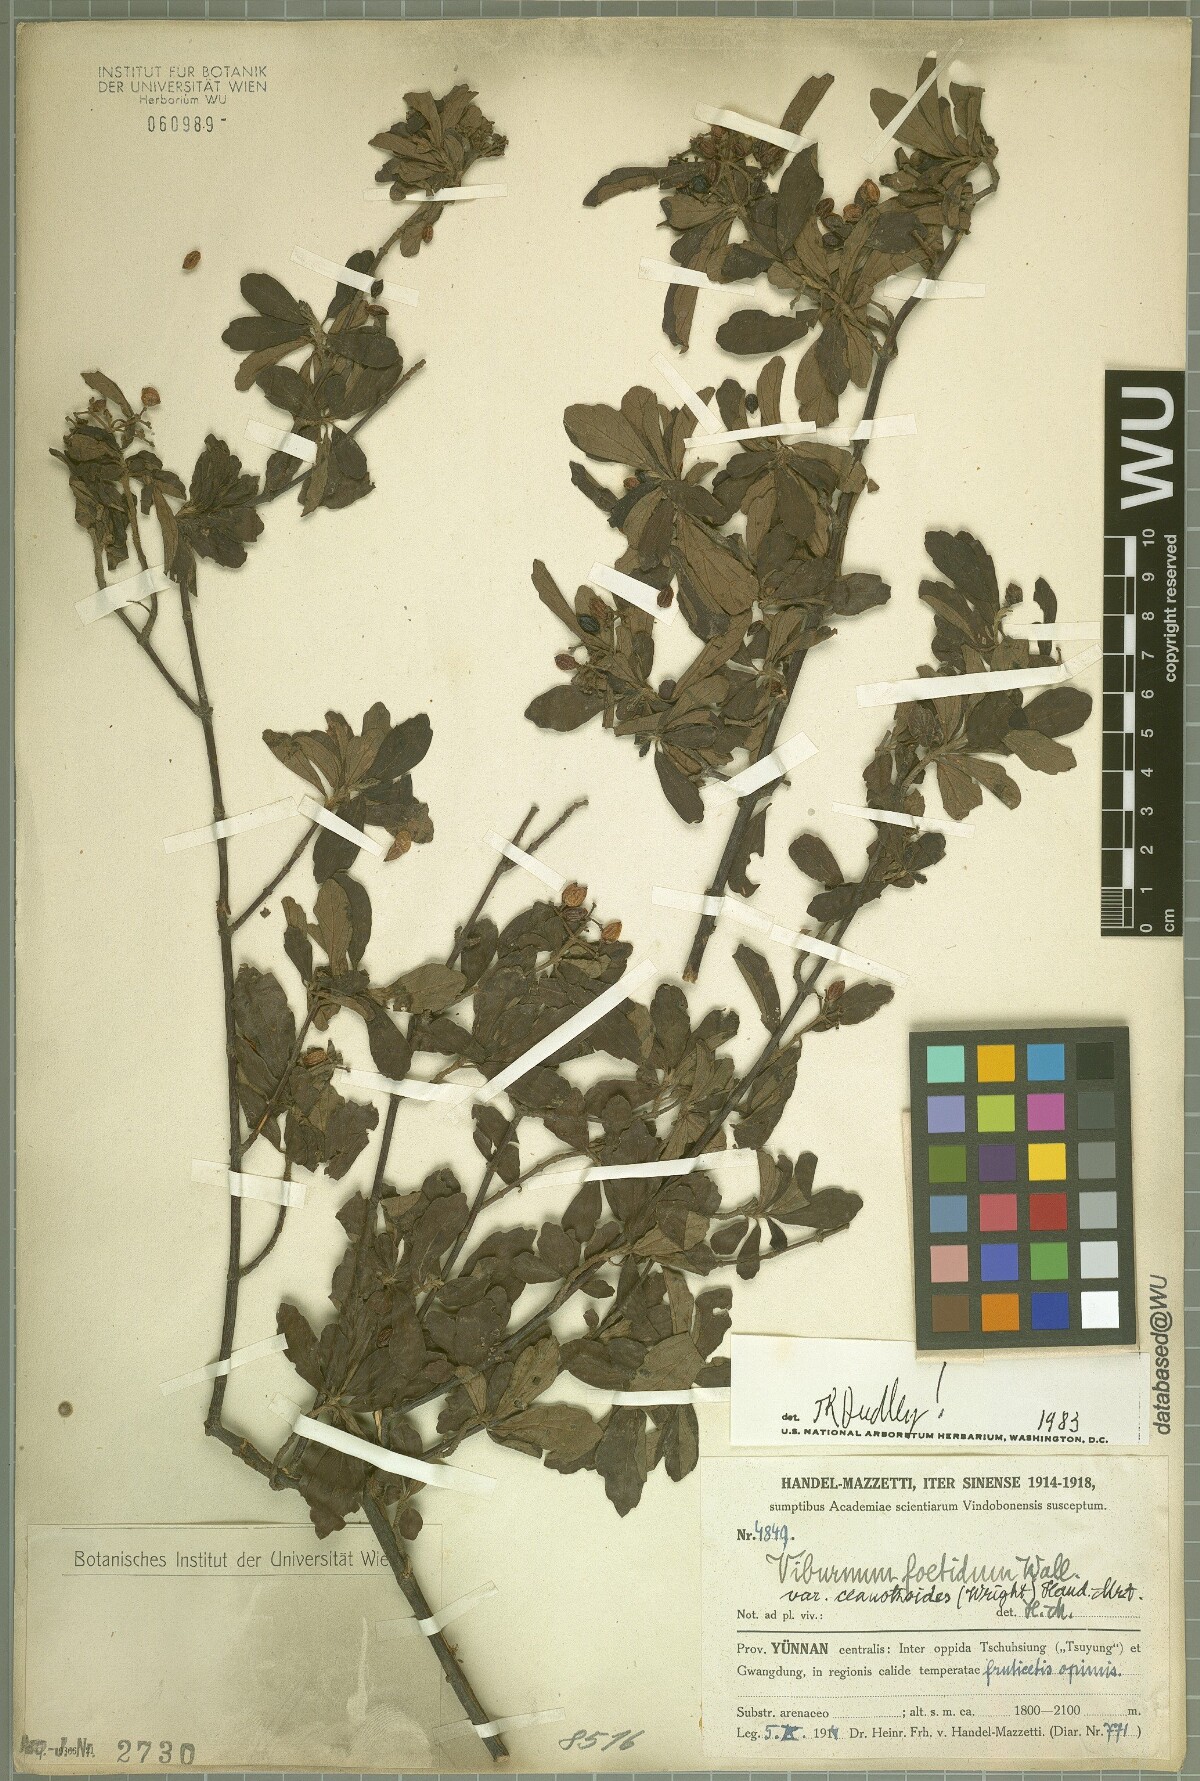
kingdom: Plantae
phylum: Tracheophyta
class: Magnoliopsida
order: Dipsacales
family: Viburnaceae
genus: Viburnum
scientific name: Viburnum foetidum
